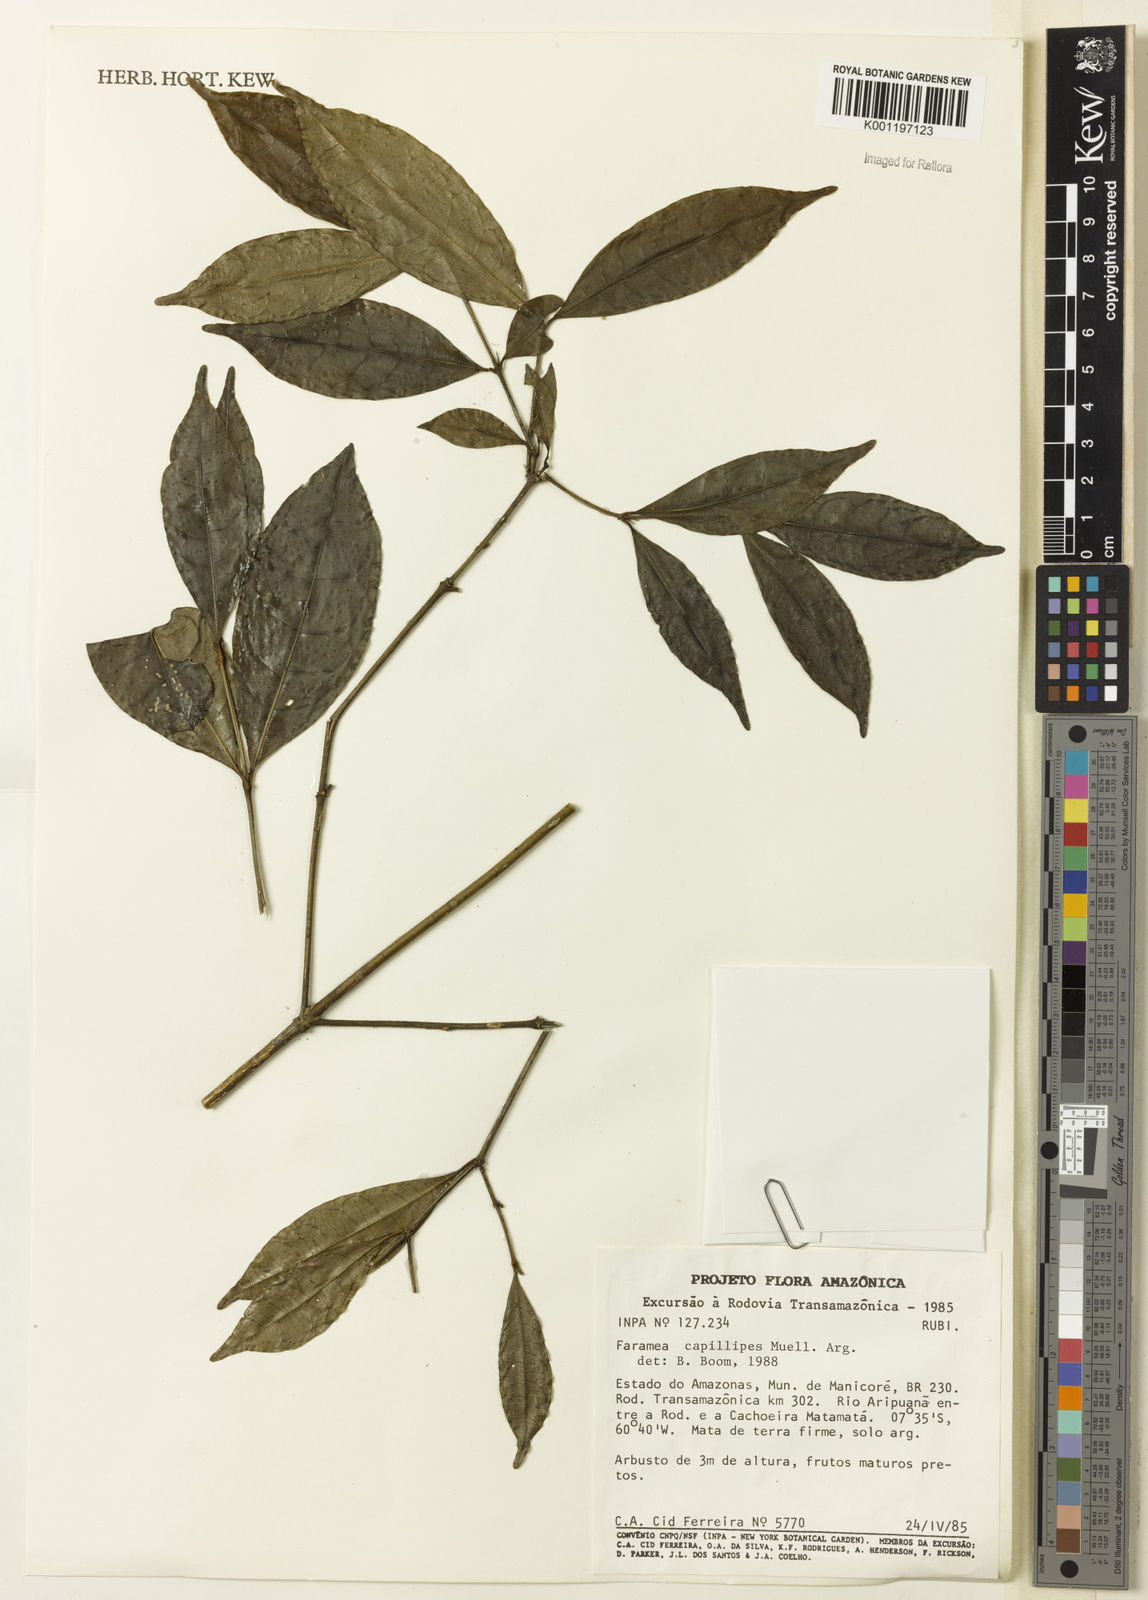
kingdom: Plantae
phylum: Tracheophyta
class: Magnoliopsida
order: Gentianales
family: Rubiaceae
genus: Faramea
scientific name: Faramea
